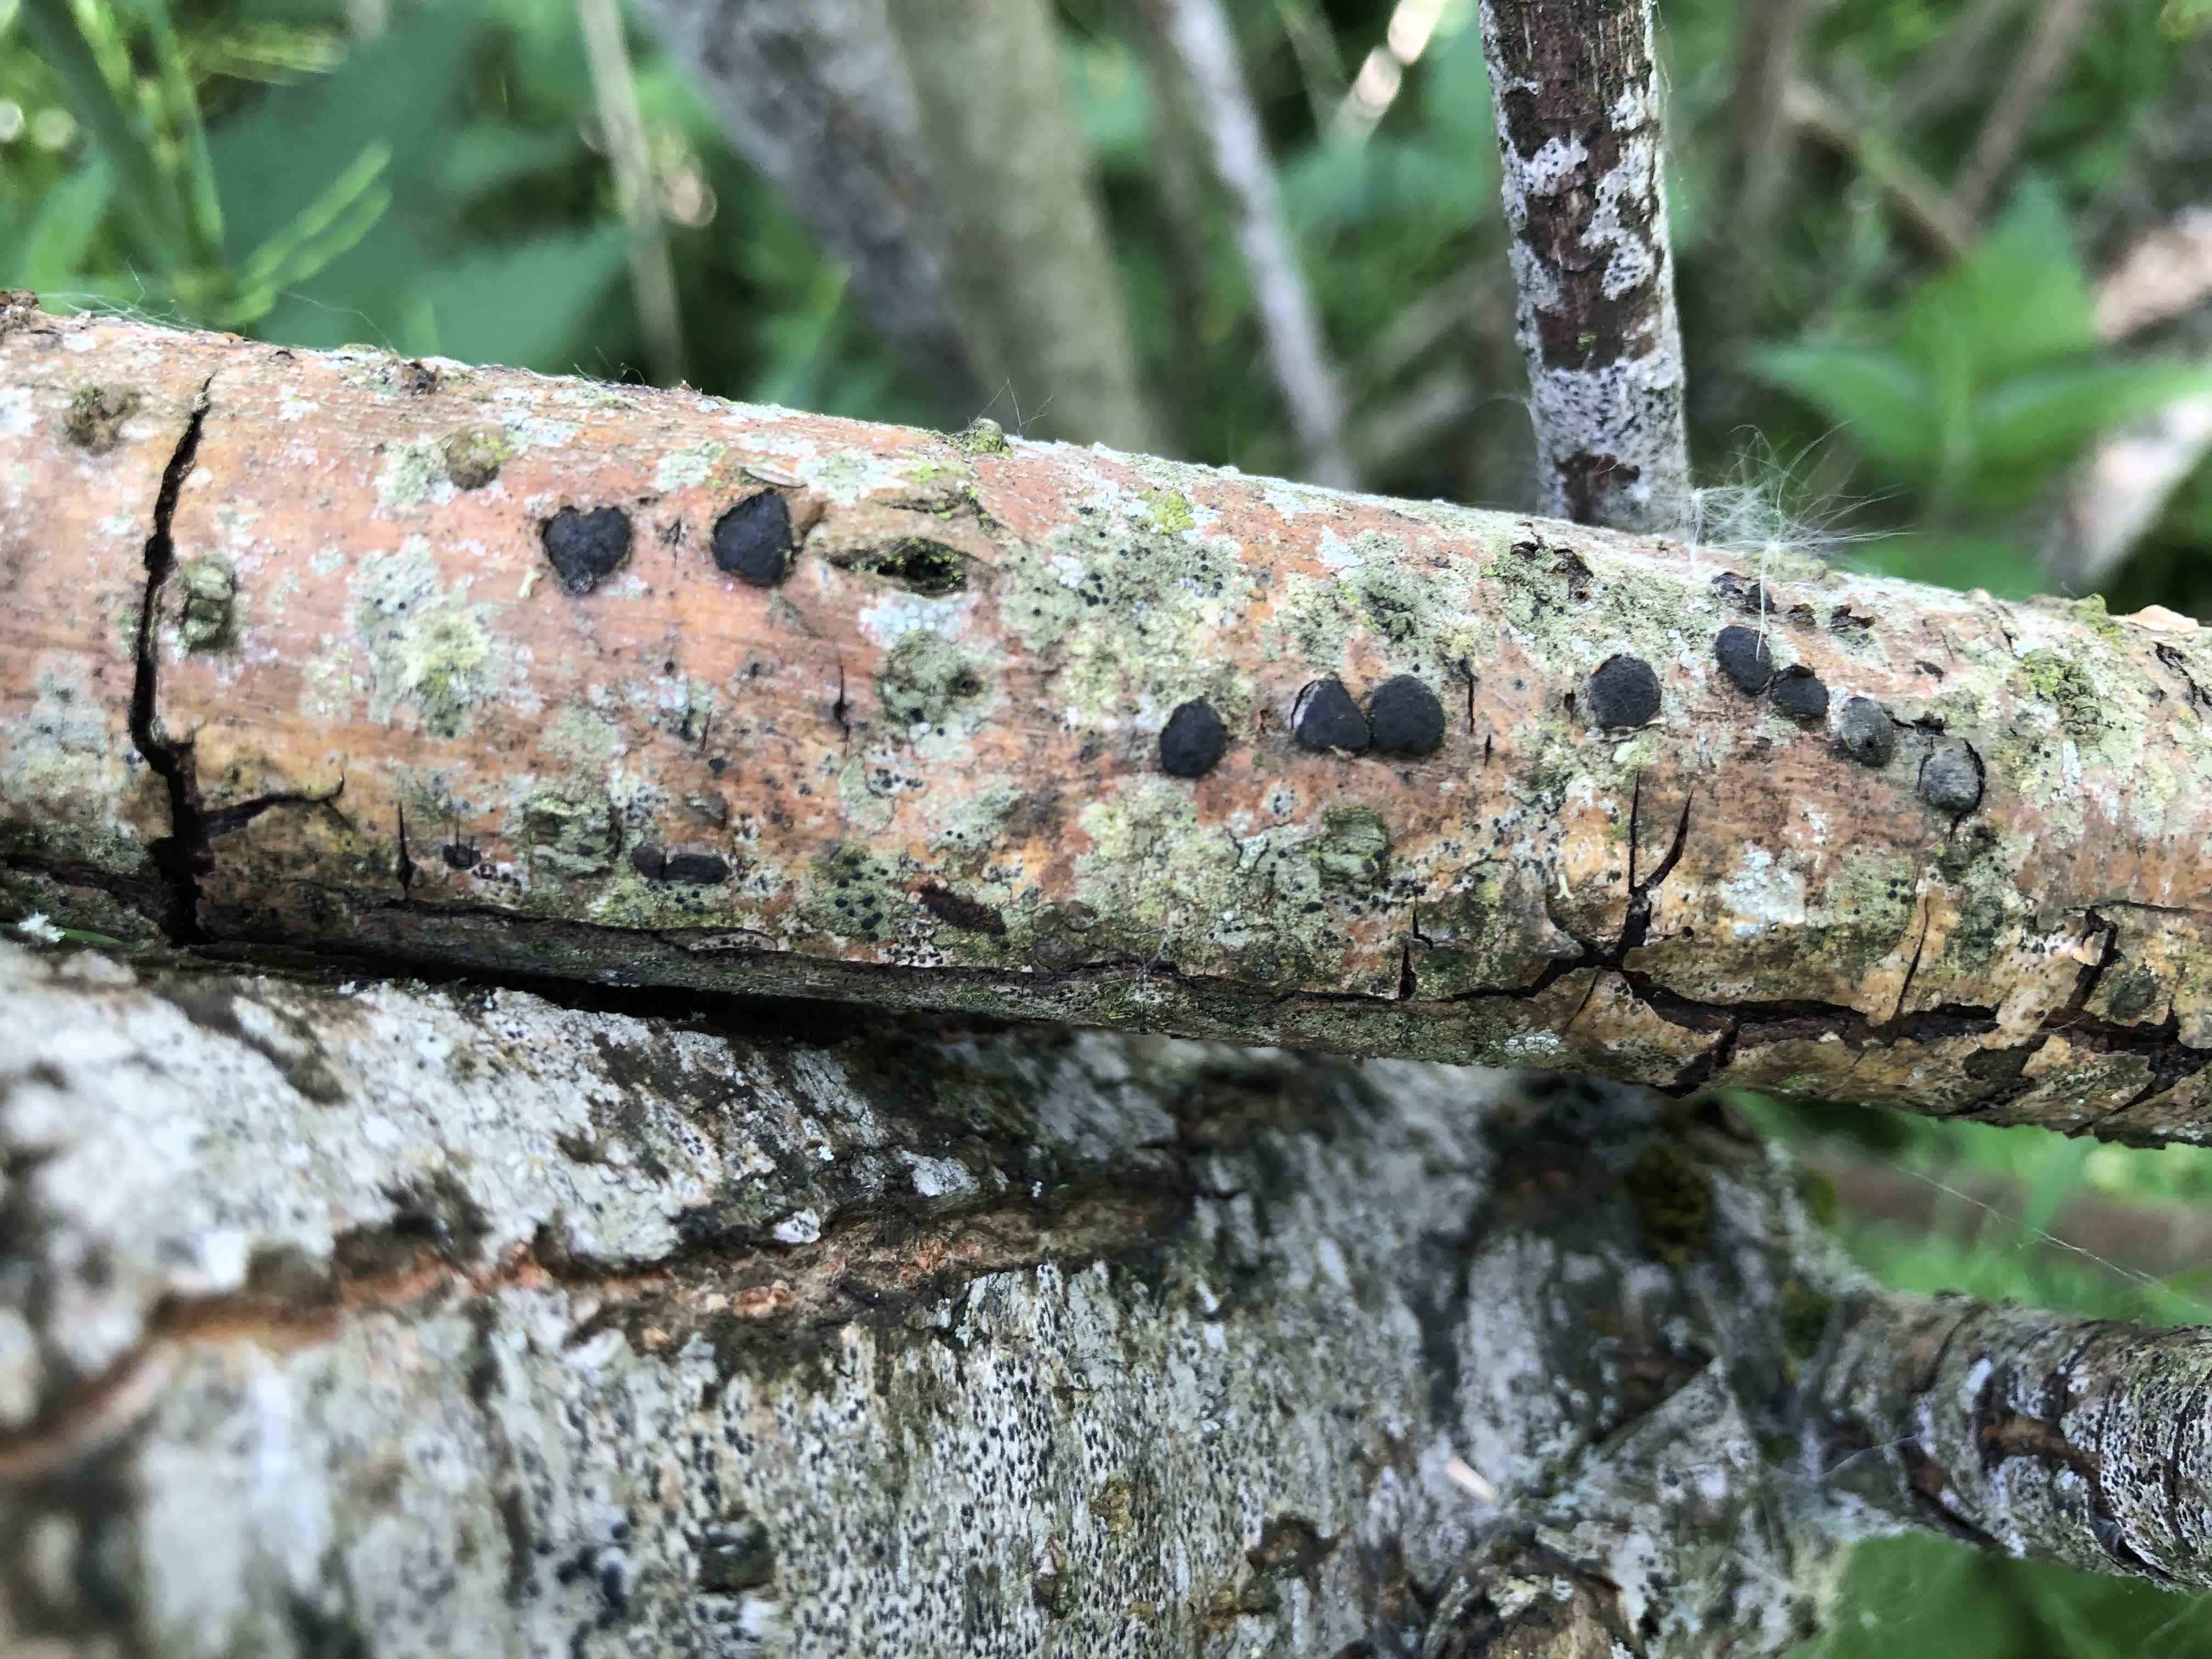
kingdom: Fungi
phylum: Ascomycota
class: Sordariomycetes
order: Xylariales
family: Diatrypaceae
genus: Diatrype
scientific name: Diatrype bullata
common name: pile-kulskorpe
